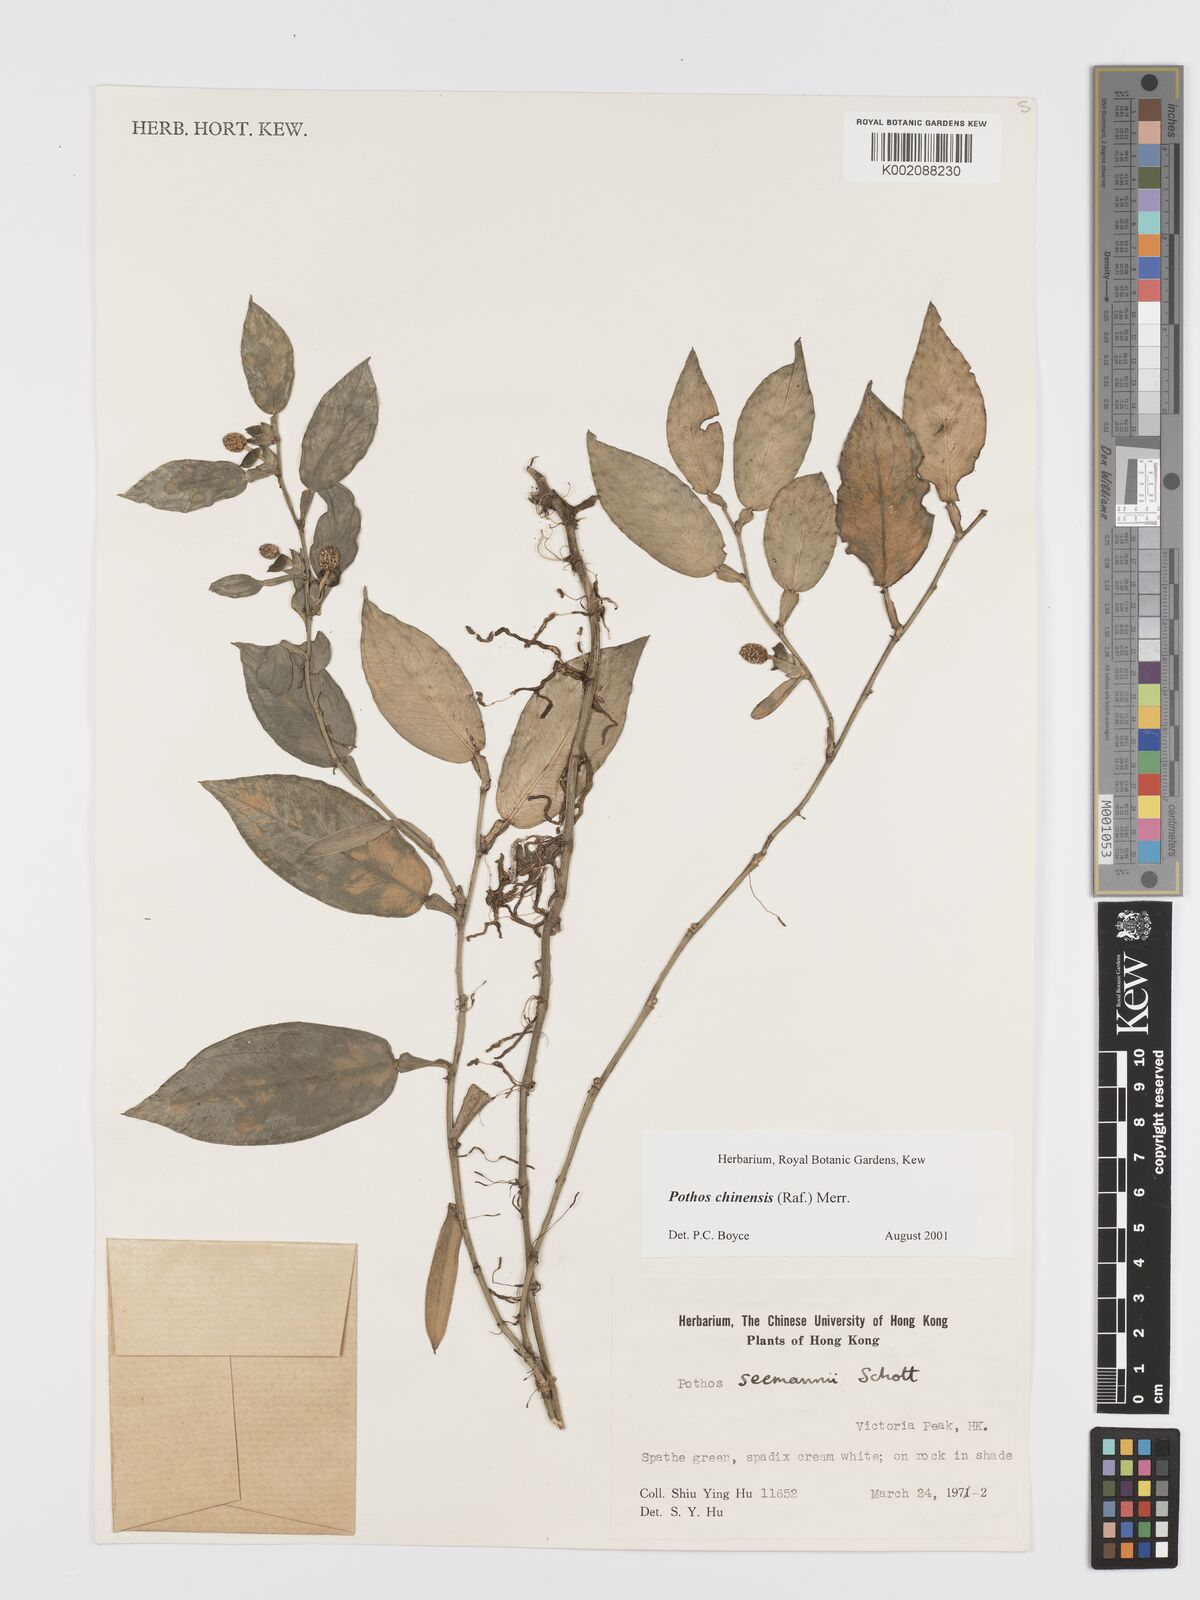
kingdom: Plantae
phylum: Tracheophyta
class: Liliopsida
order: Alismatales
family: Araceae
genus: Pothos
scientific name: Pothos chinensis
